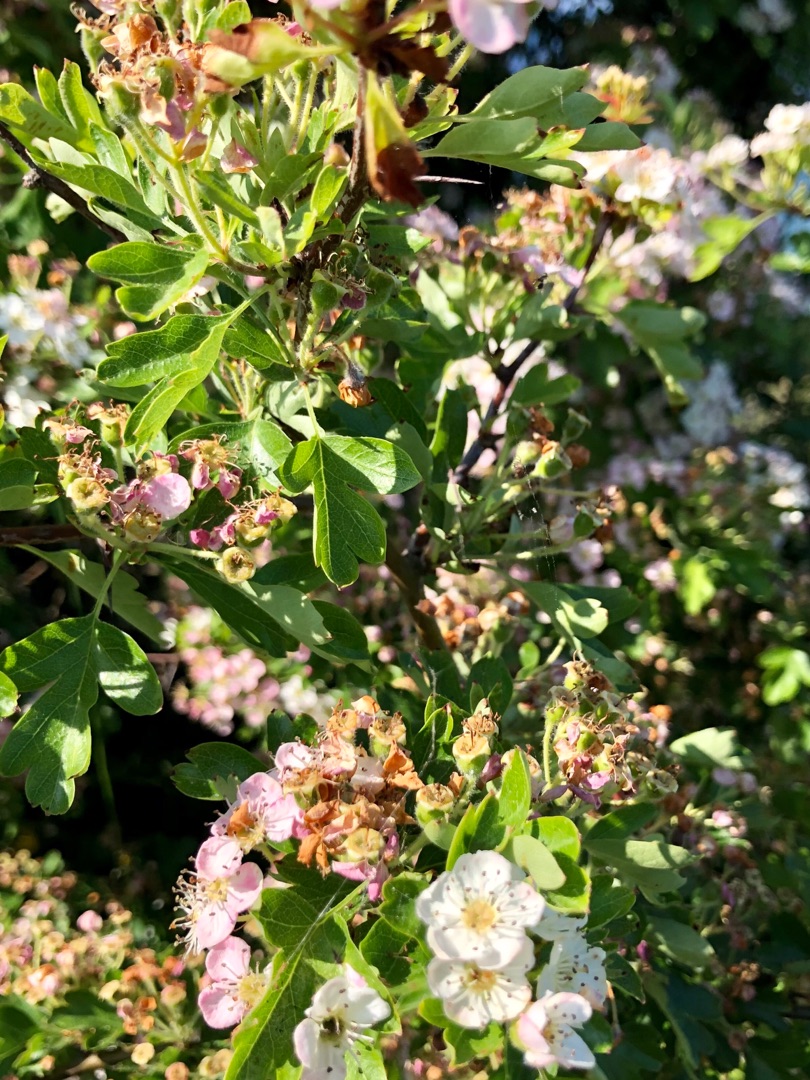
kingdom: Plantae
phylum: Tracheophyta
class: Magnoliopsida
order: Rosales
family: Rosaceae
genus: Crataegus
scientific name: Crataegus monogyna
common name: Engriflet hvidtjørn
